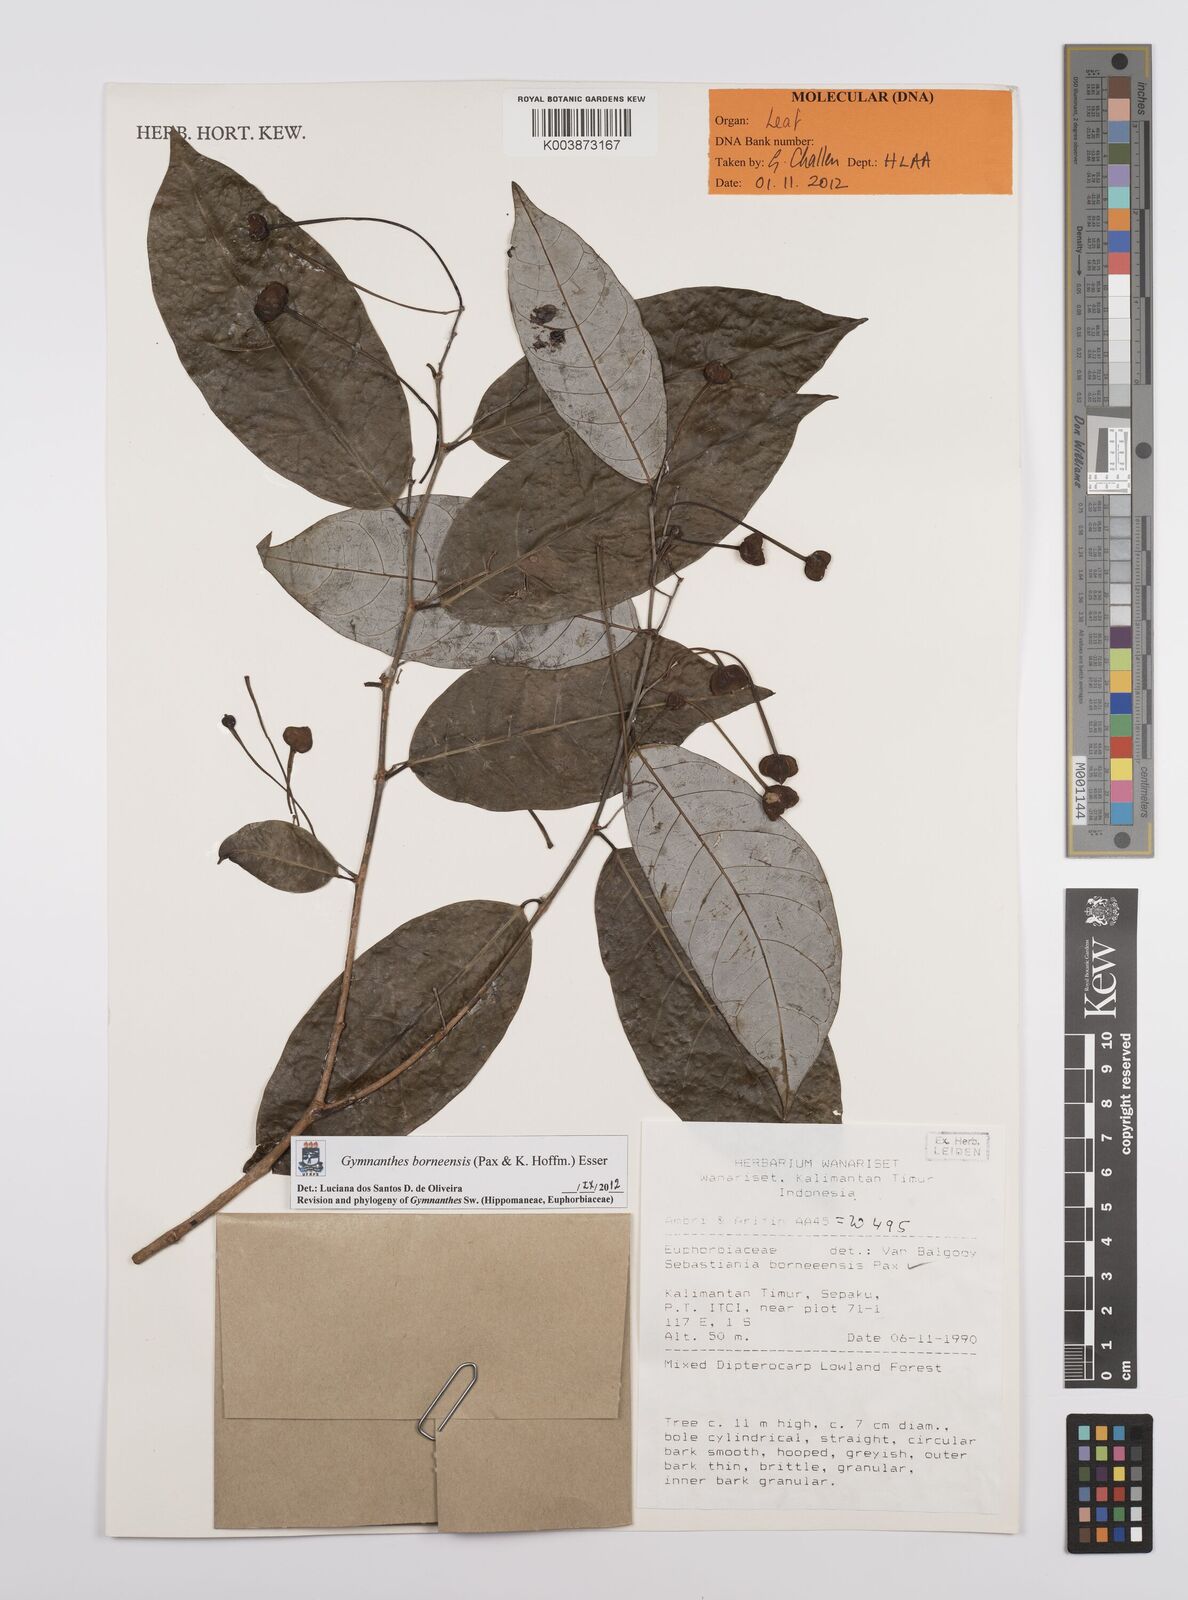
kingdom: Plantae
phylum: Tracheophyta
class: Magnoliopsida
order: Malpighiales
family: Euphorbiaceae
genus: Gymnanthes
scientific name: Gymnanthes borneensis
